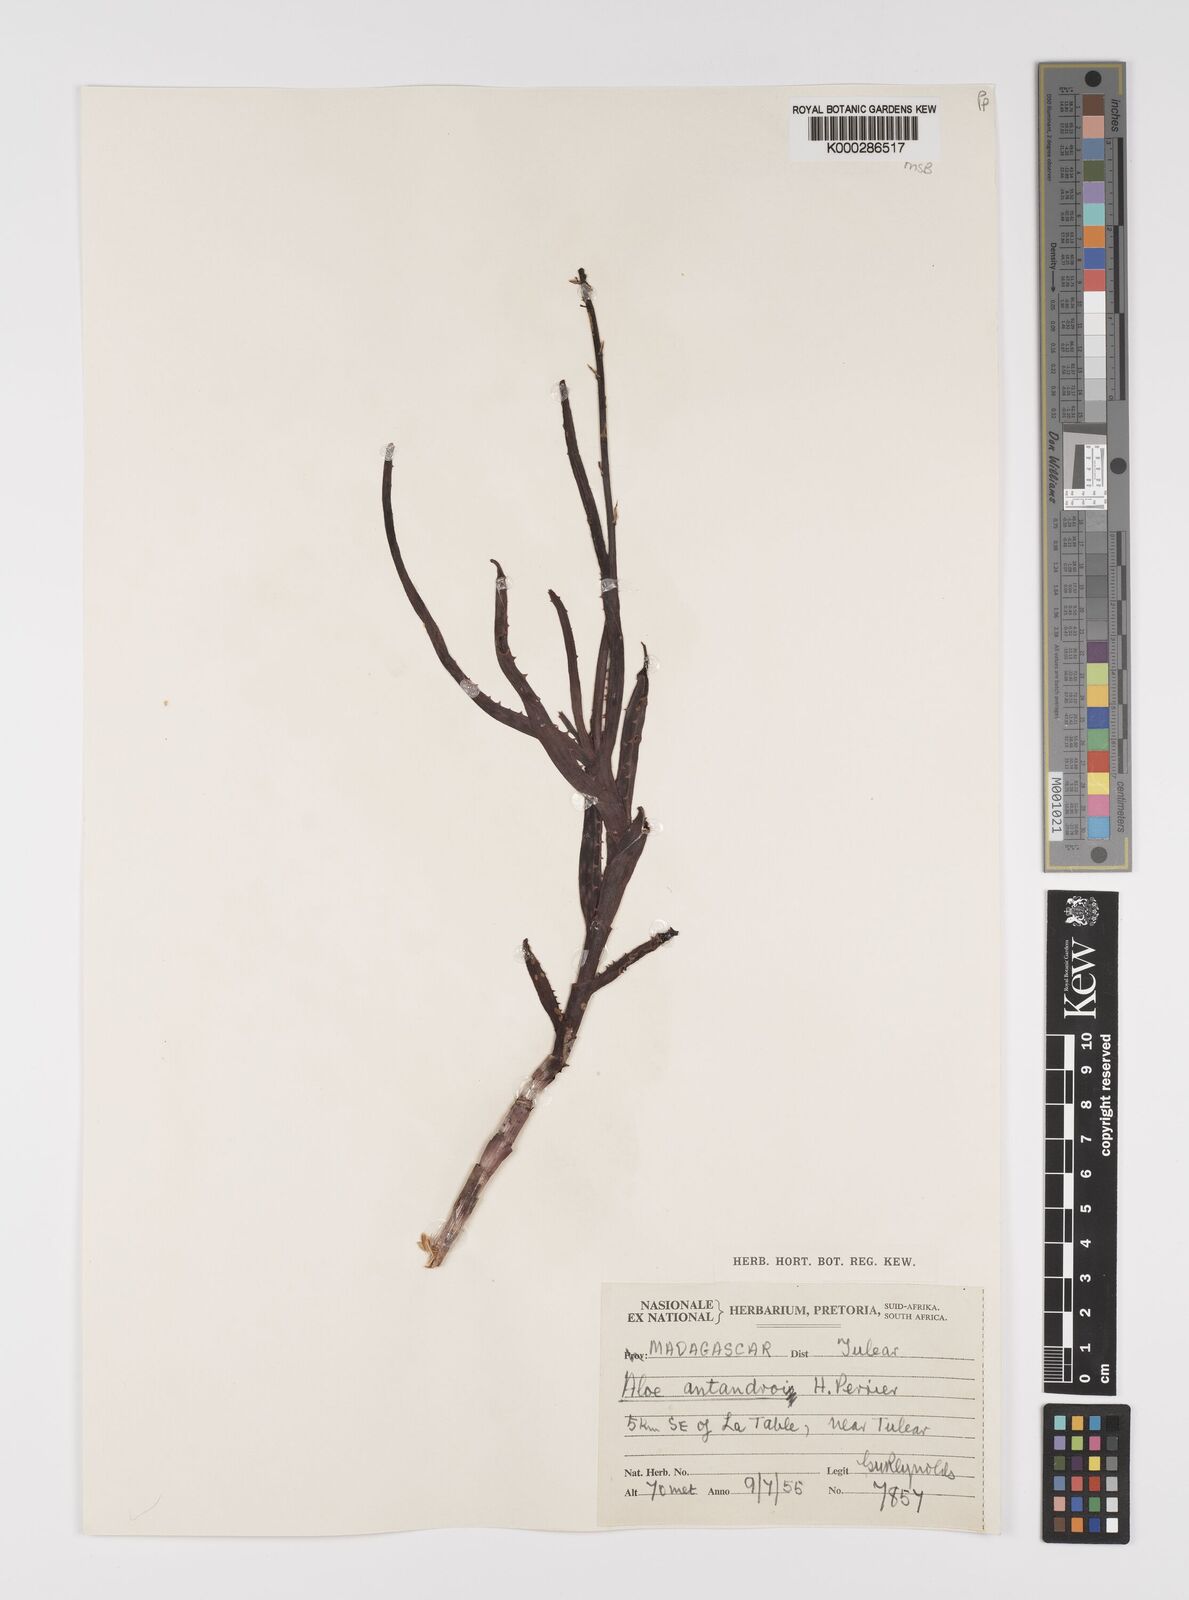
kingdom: Plantae
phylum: Tracheophyta
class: Liliopsida
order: Asparagales
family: Asphodelaceae
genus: Aloe
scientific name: Aloe
